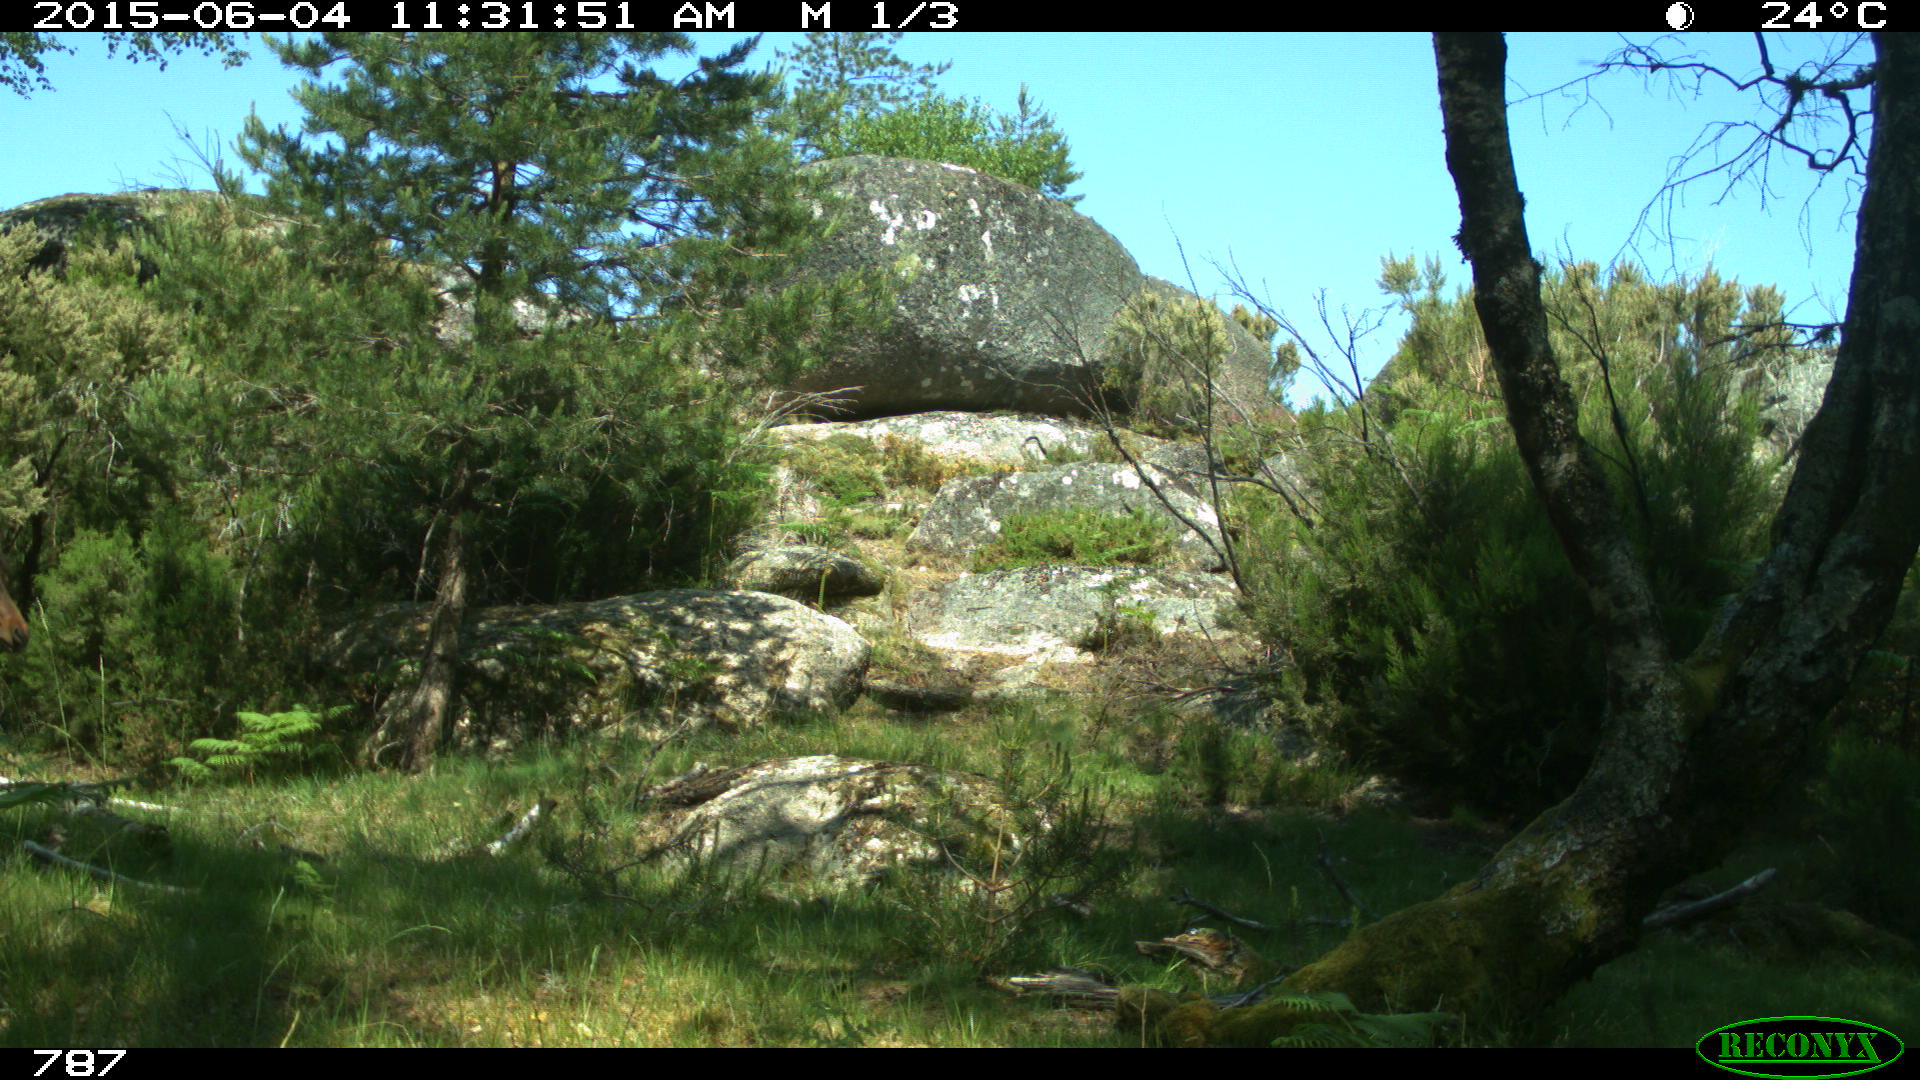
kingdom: Animalia
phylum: Chordata
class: Mammalia
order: Perissodactyla
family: Equidae
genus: Equus
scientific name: Equus caballus
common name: Horse
